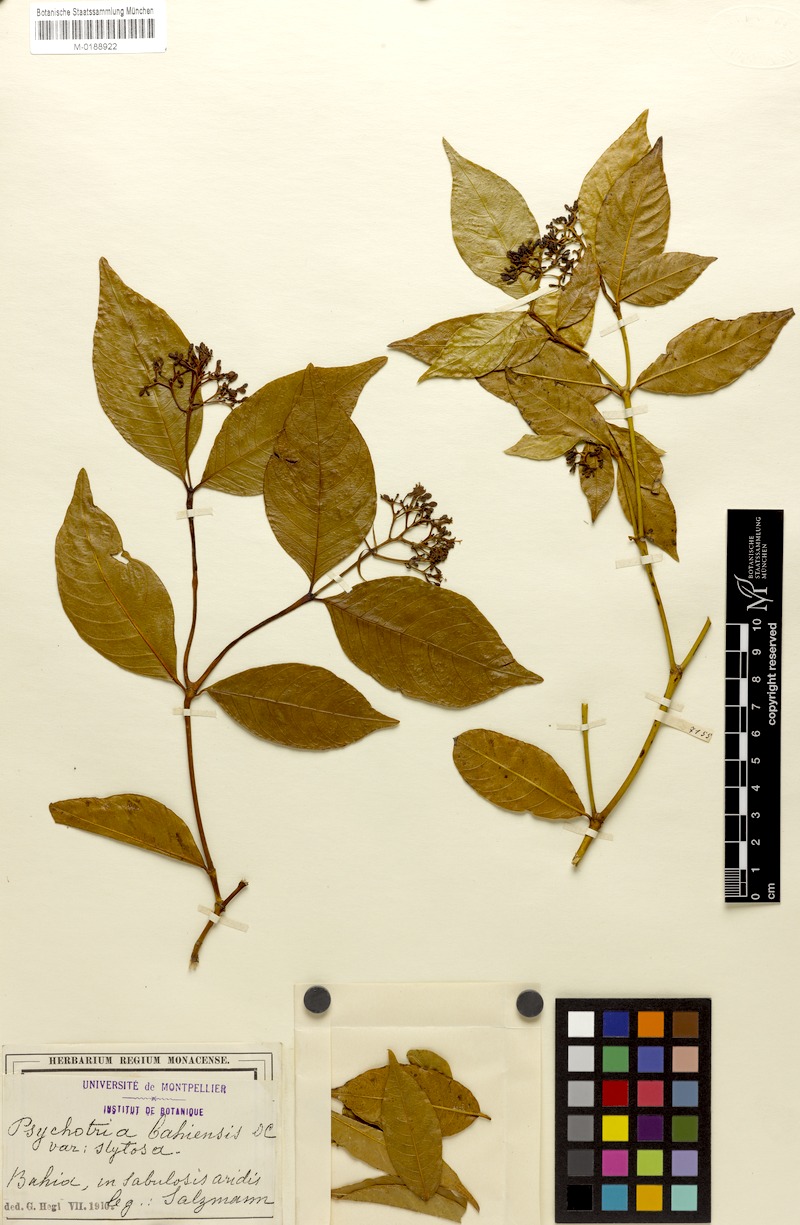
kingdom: Plantae
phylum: Tracheophyta
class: Magnoliopsida
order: Gentianales
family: Rubiaceae
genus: Psychotria
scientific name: Psychotria bahiensis
